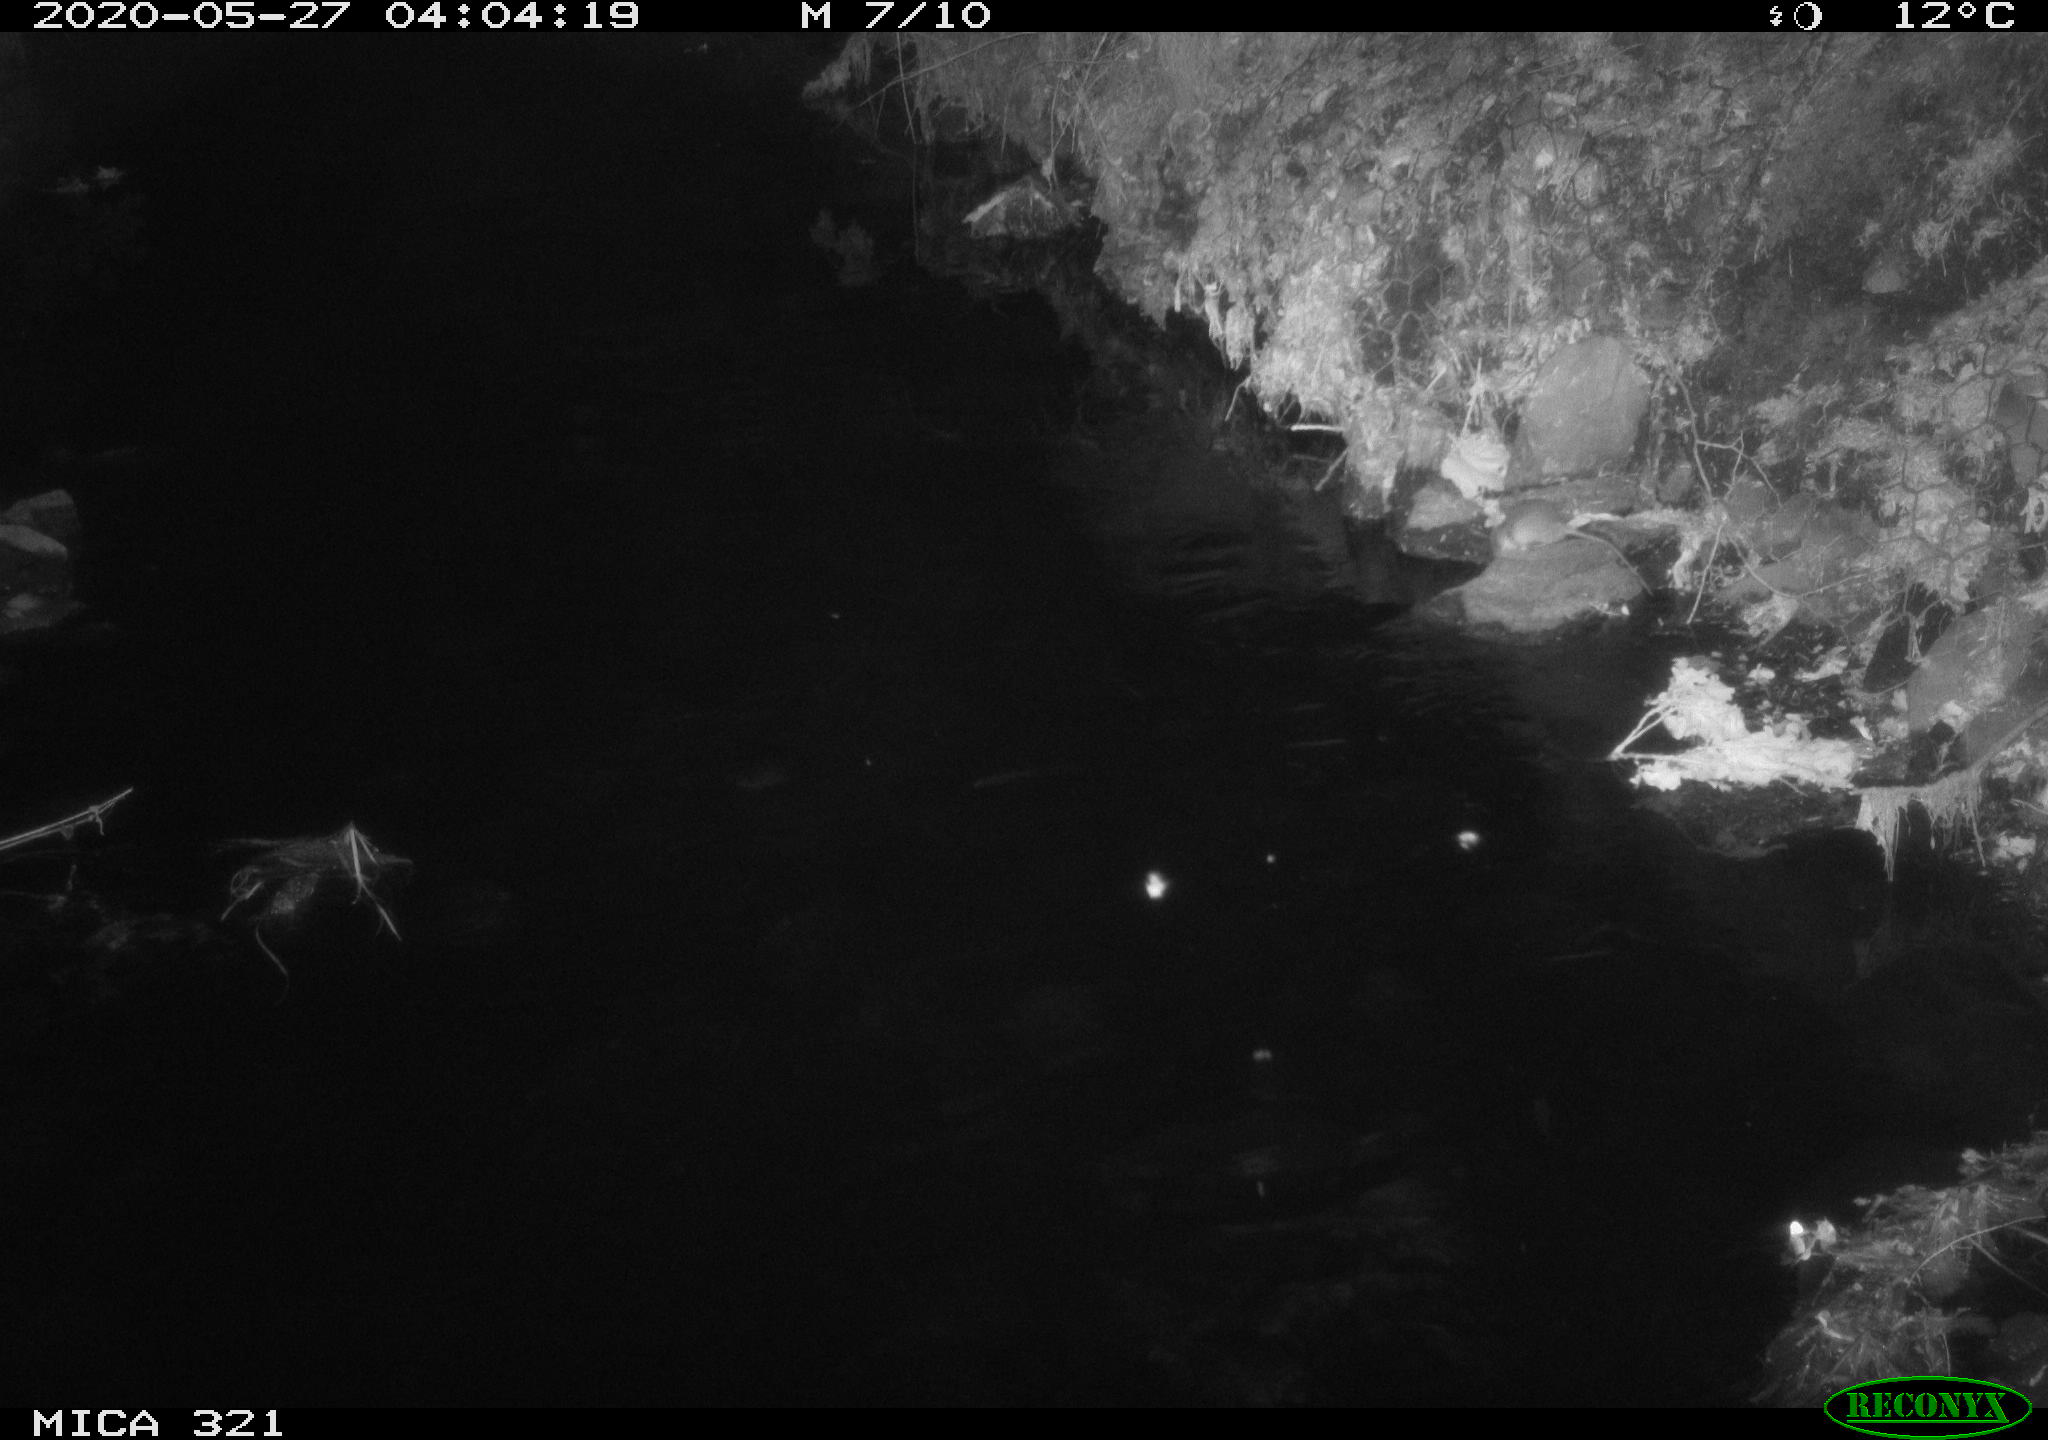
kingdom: Animalia
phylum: Chordata
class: Mammalia
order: Rodentia
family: Muridae
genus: Rattus
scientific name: Rattus norvegicus
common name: Brown rat
